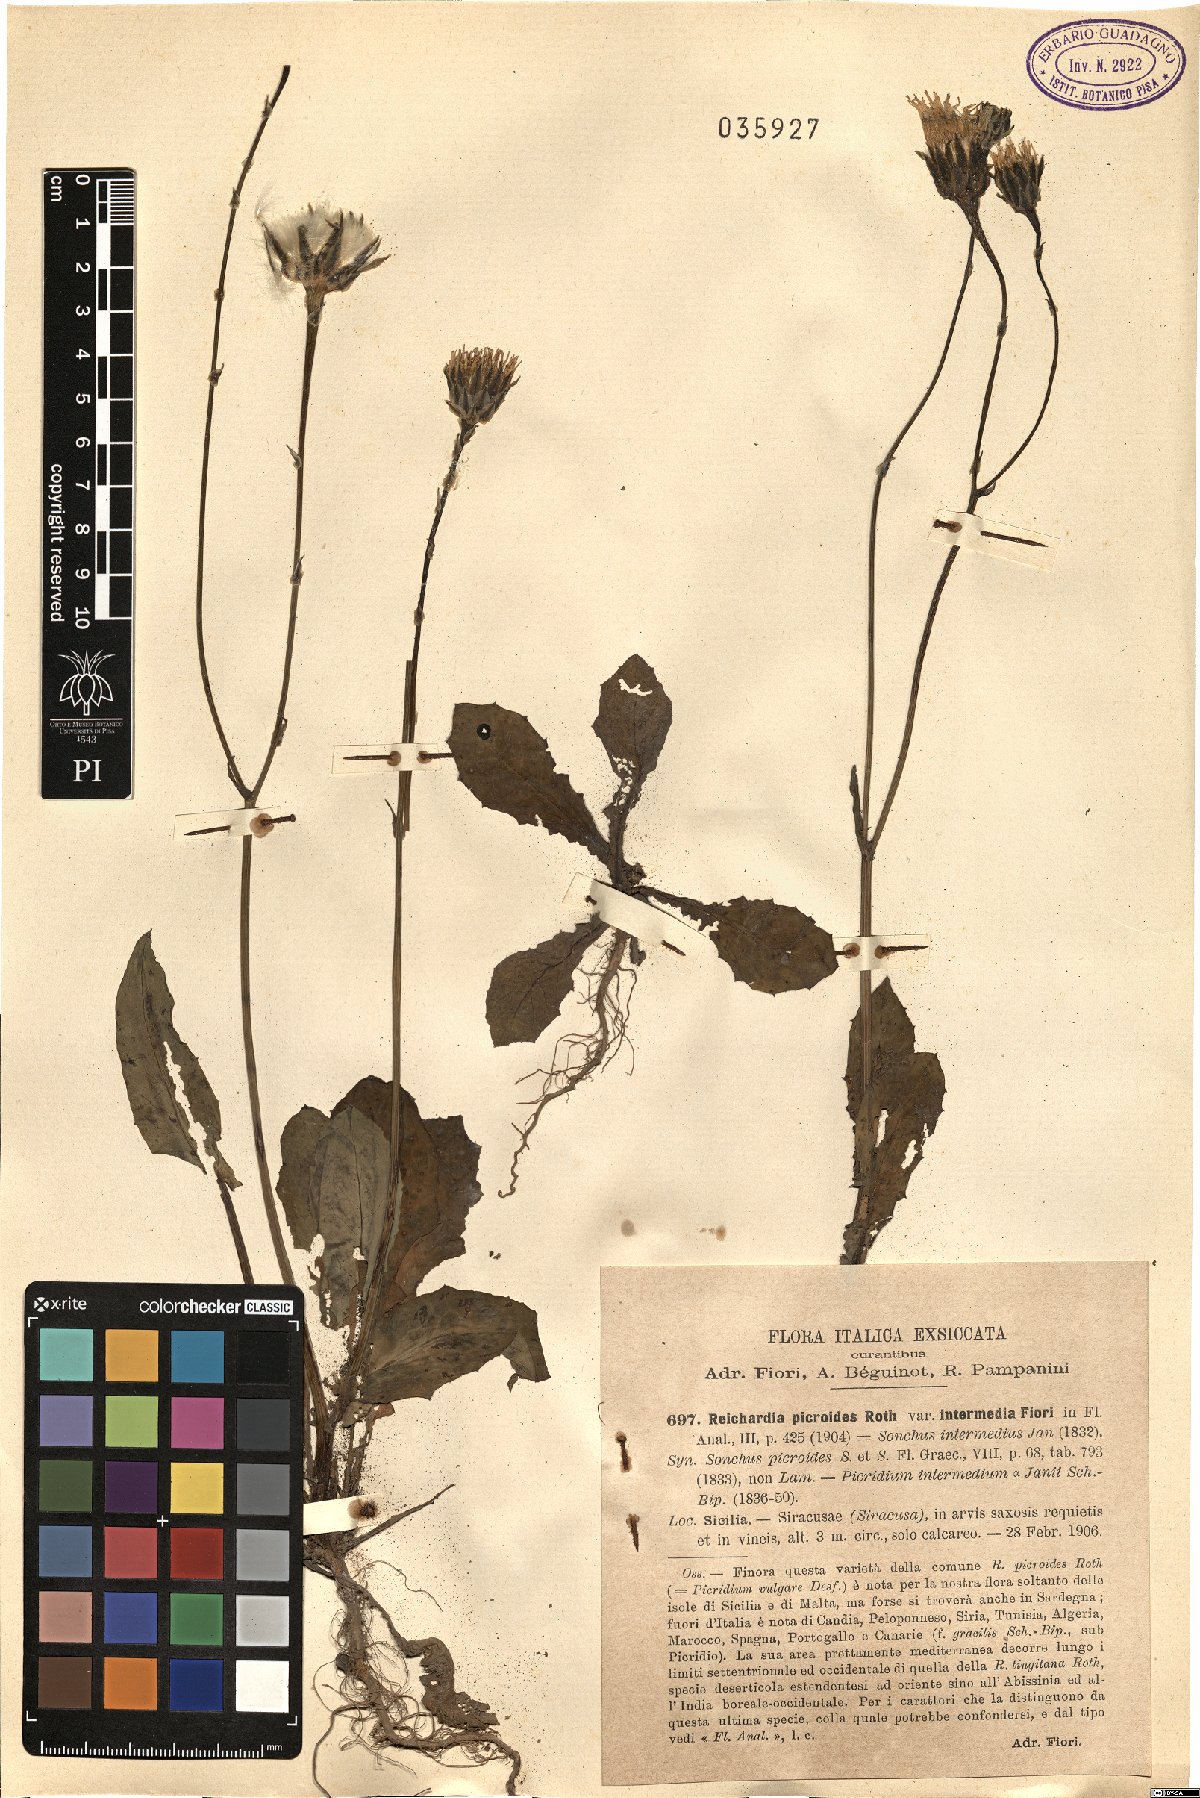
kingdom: Plantae
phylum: Tracheophyta
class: Magnoliopsida
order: Asterales
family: Asteraceae
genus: Reichardia
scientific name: Reichardia intermedia
